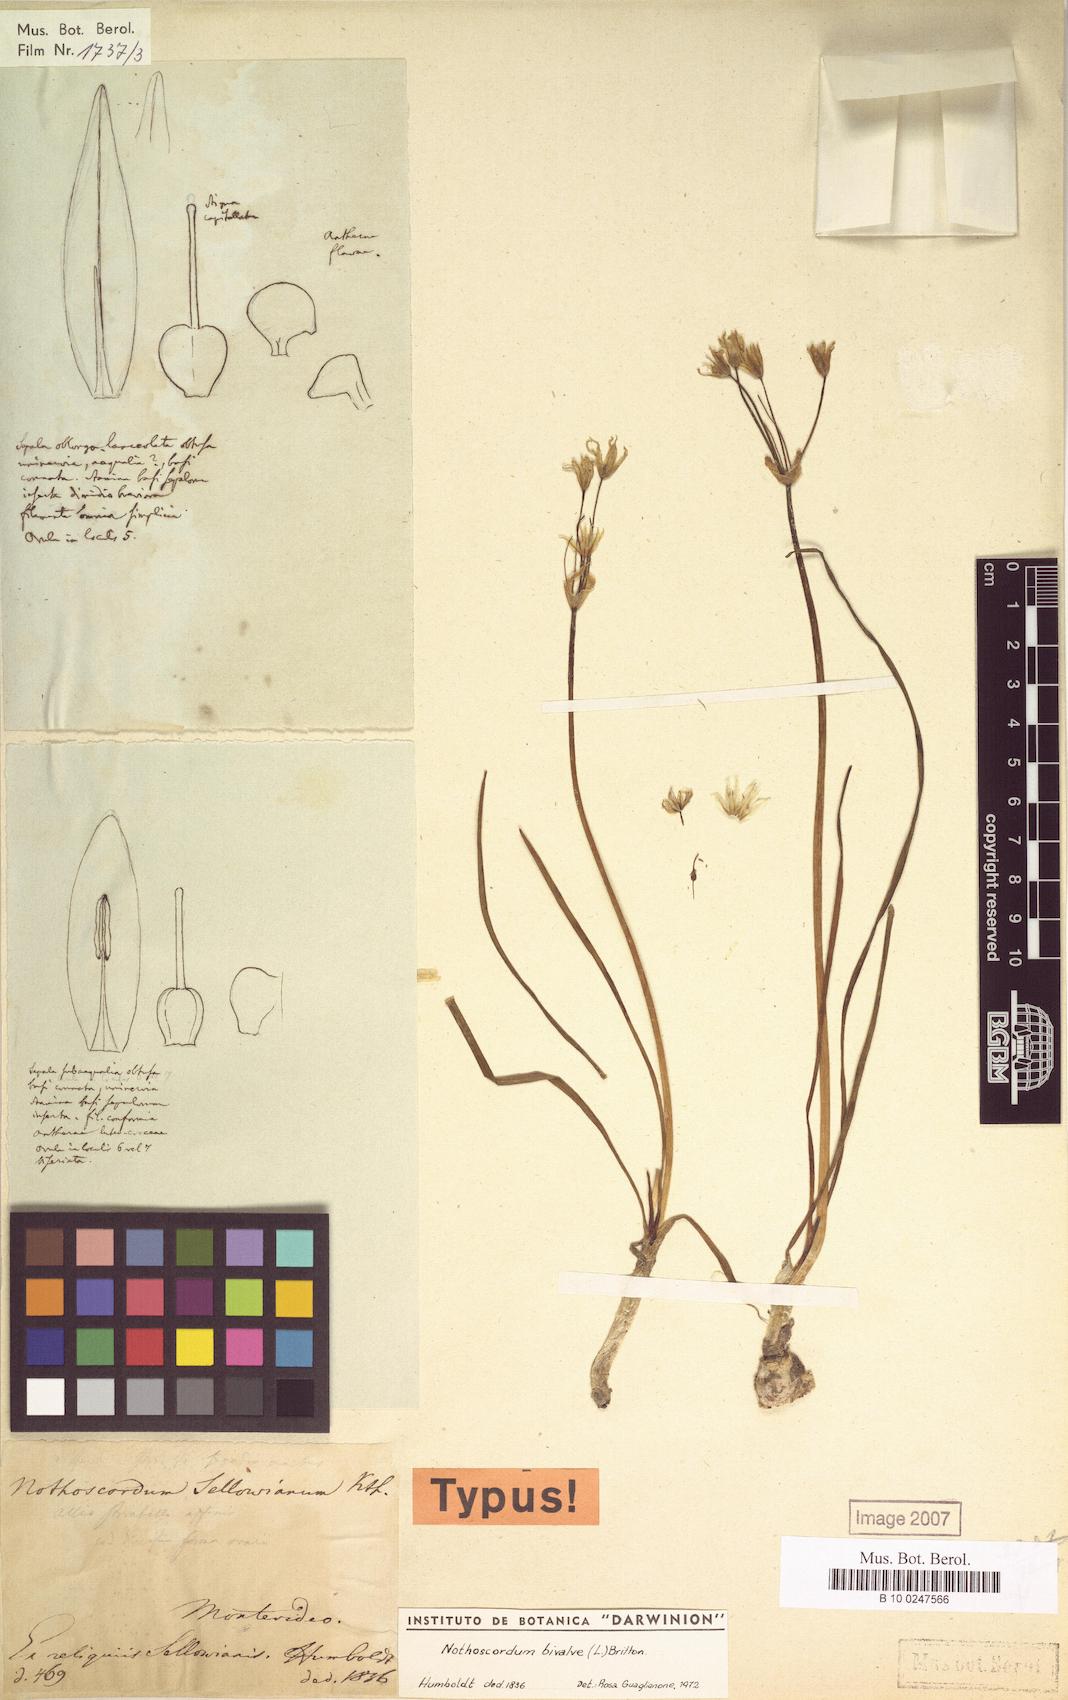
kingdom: Plantae
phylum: Tracheophyta
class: Liliopsida
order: Asparagales
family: Amaryllidaceae
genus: Nothoscordum
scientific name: Nothoscordum bivalve
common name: Crow-poison
